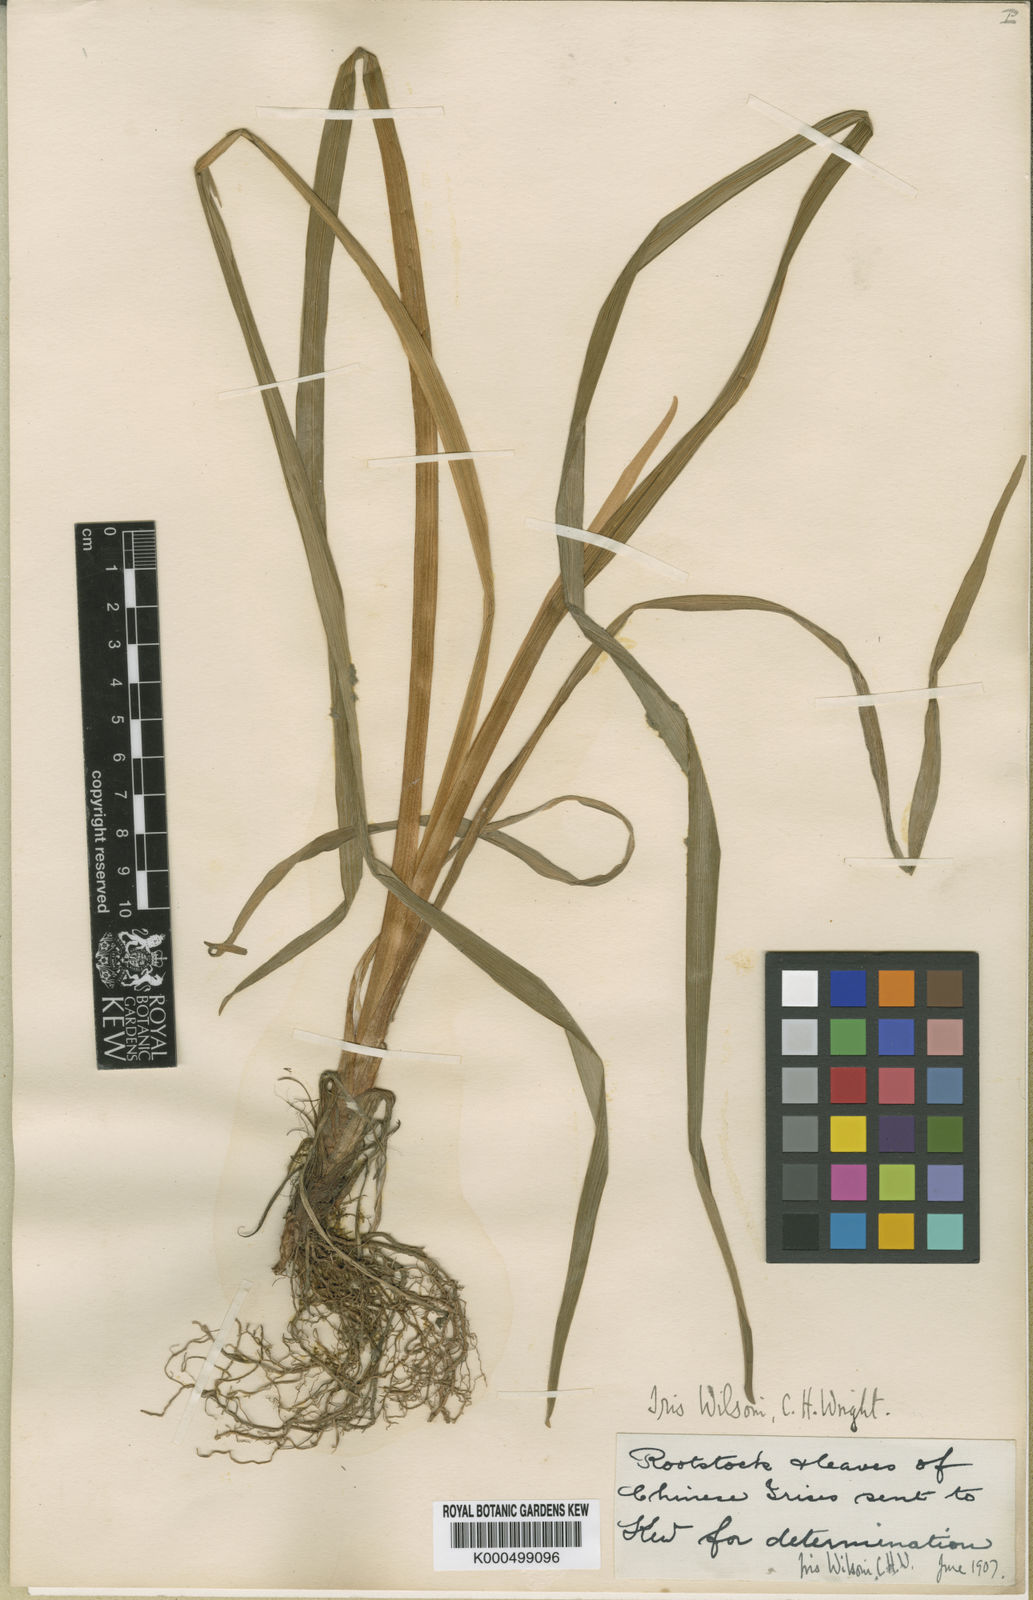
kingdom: Plantae
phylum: Tracheophyta
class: Liliopsida
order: Asparagales
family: Iridaceae
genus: Iris
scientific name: Iris wilsonii
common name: Yellow-flower iris
